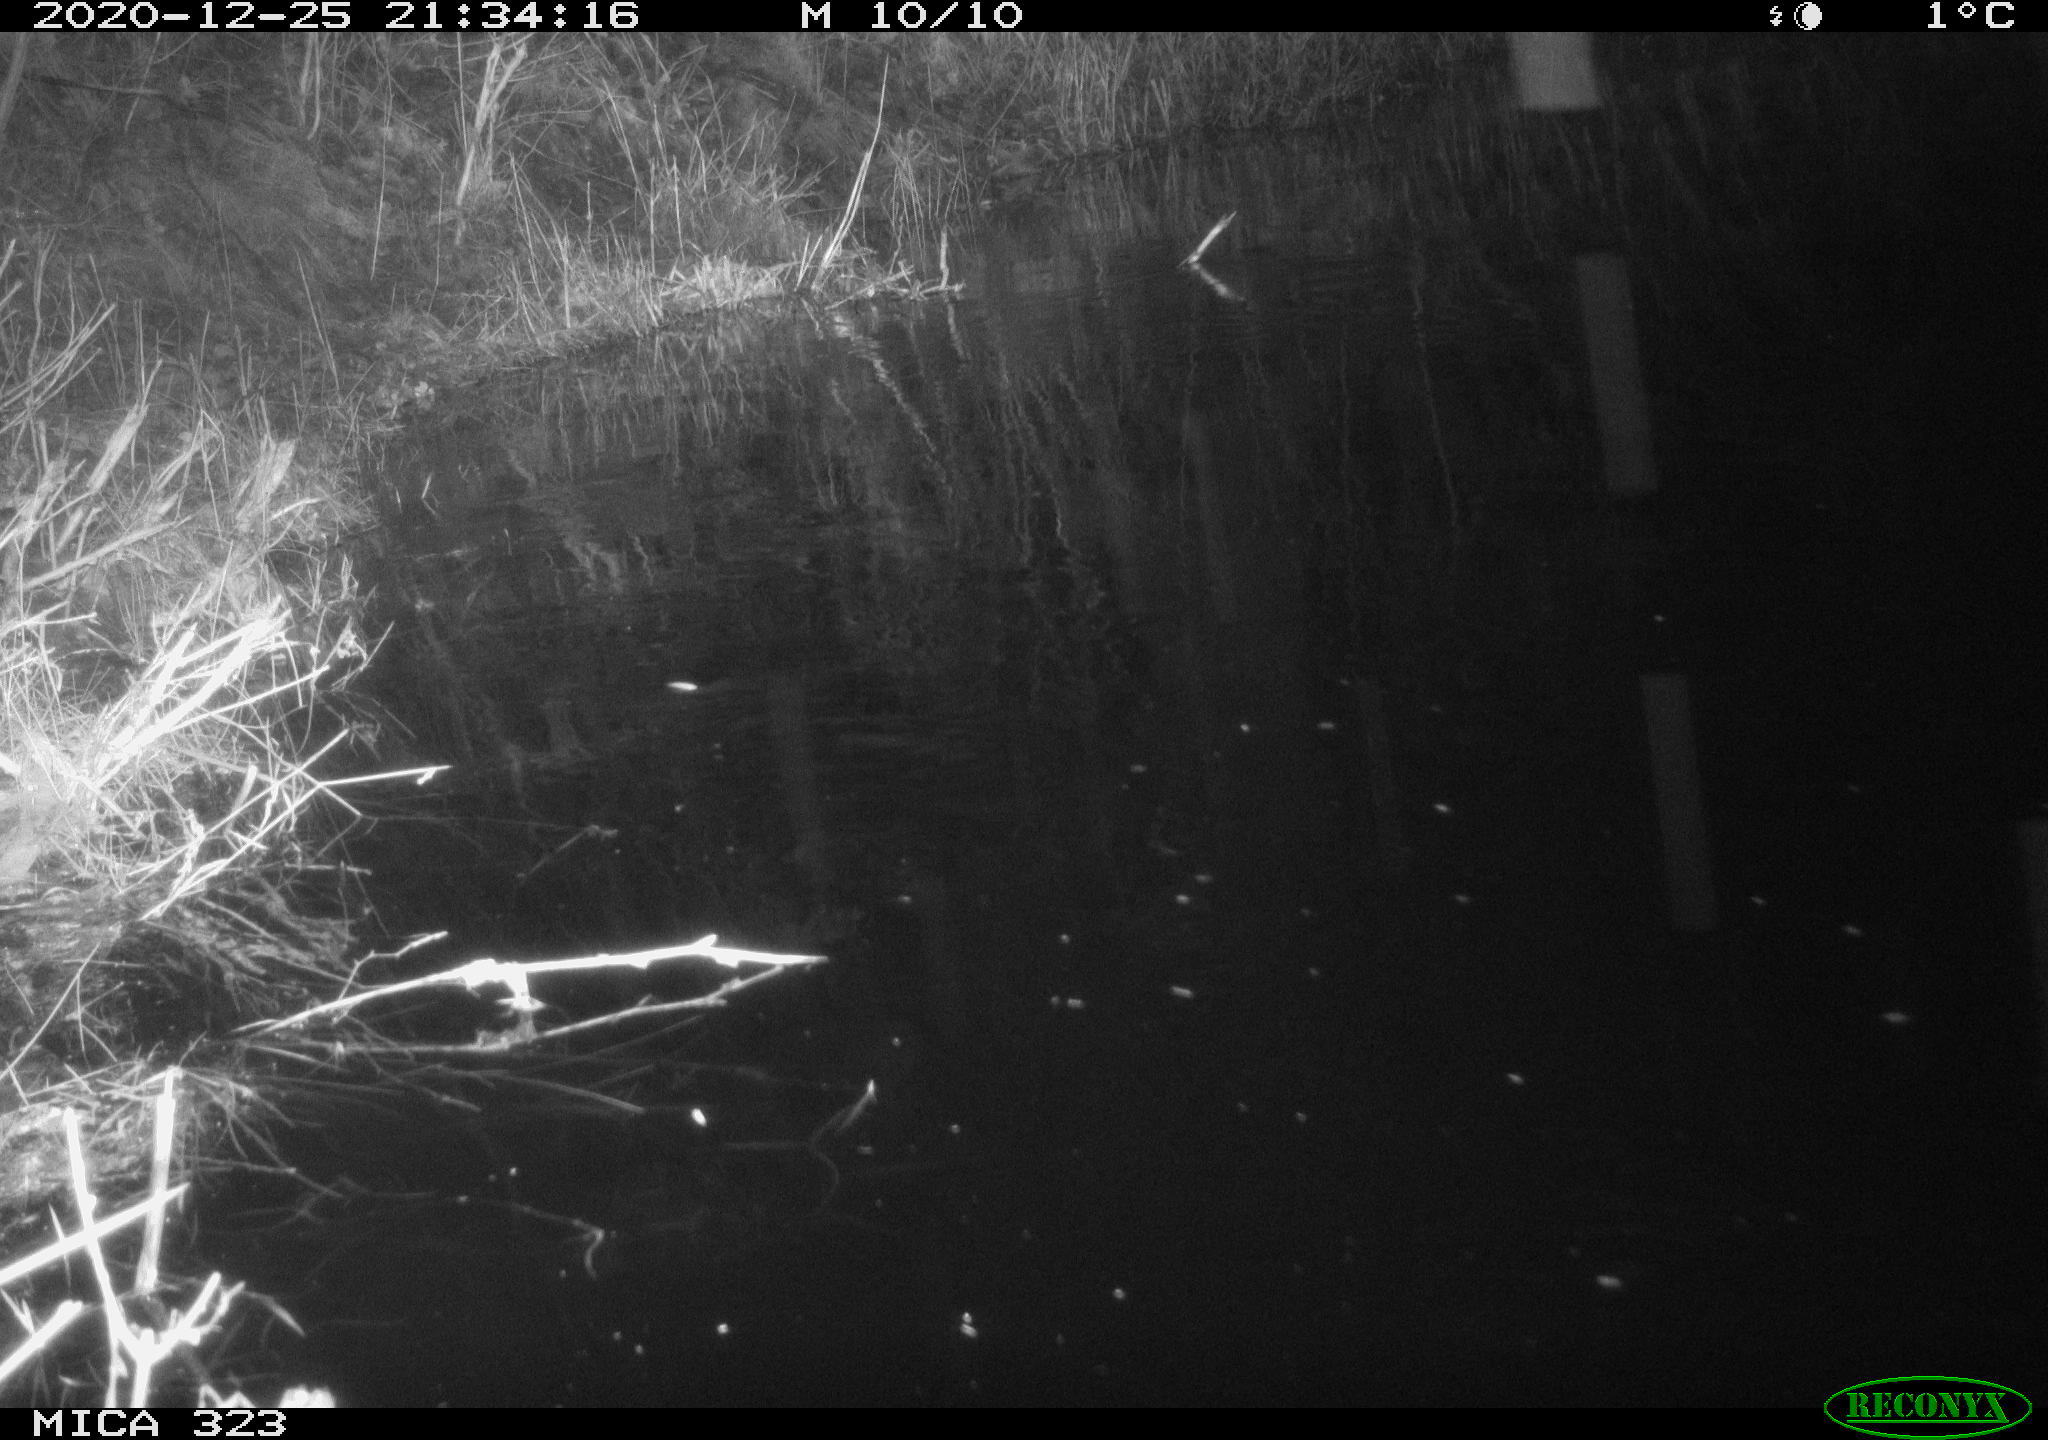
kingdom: Animalia
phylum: Chordata
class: Mammalia
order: Rodentia
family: Muridae
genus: Rattus
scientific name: Rattus norvegicus
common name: Brown rat
